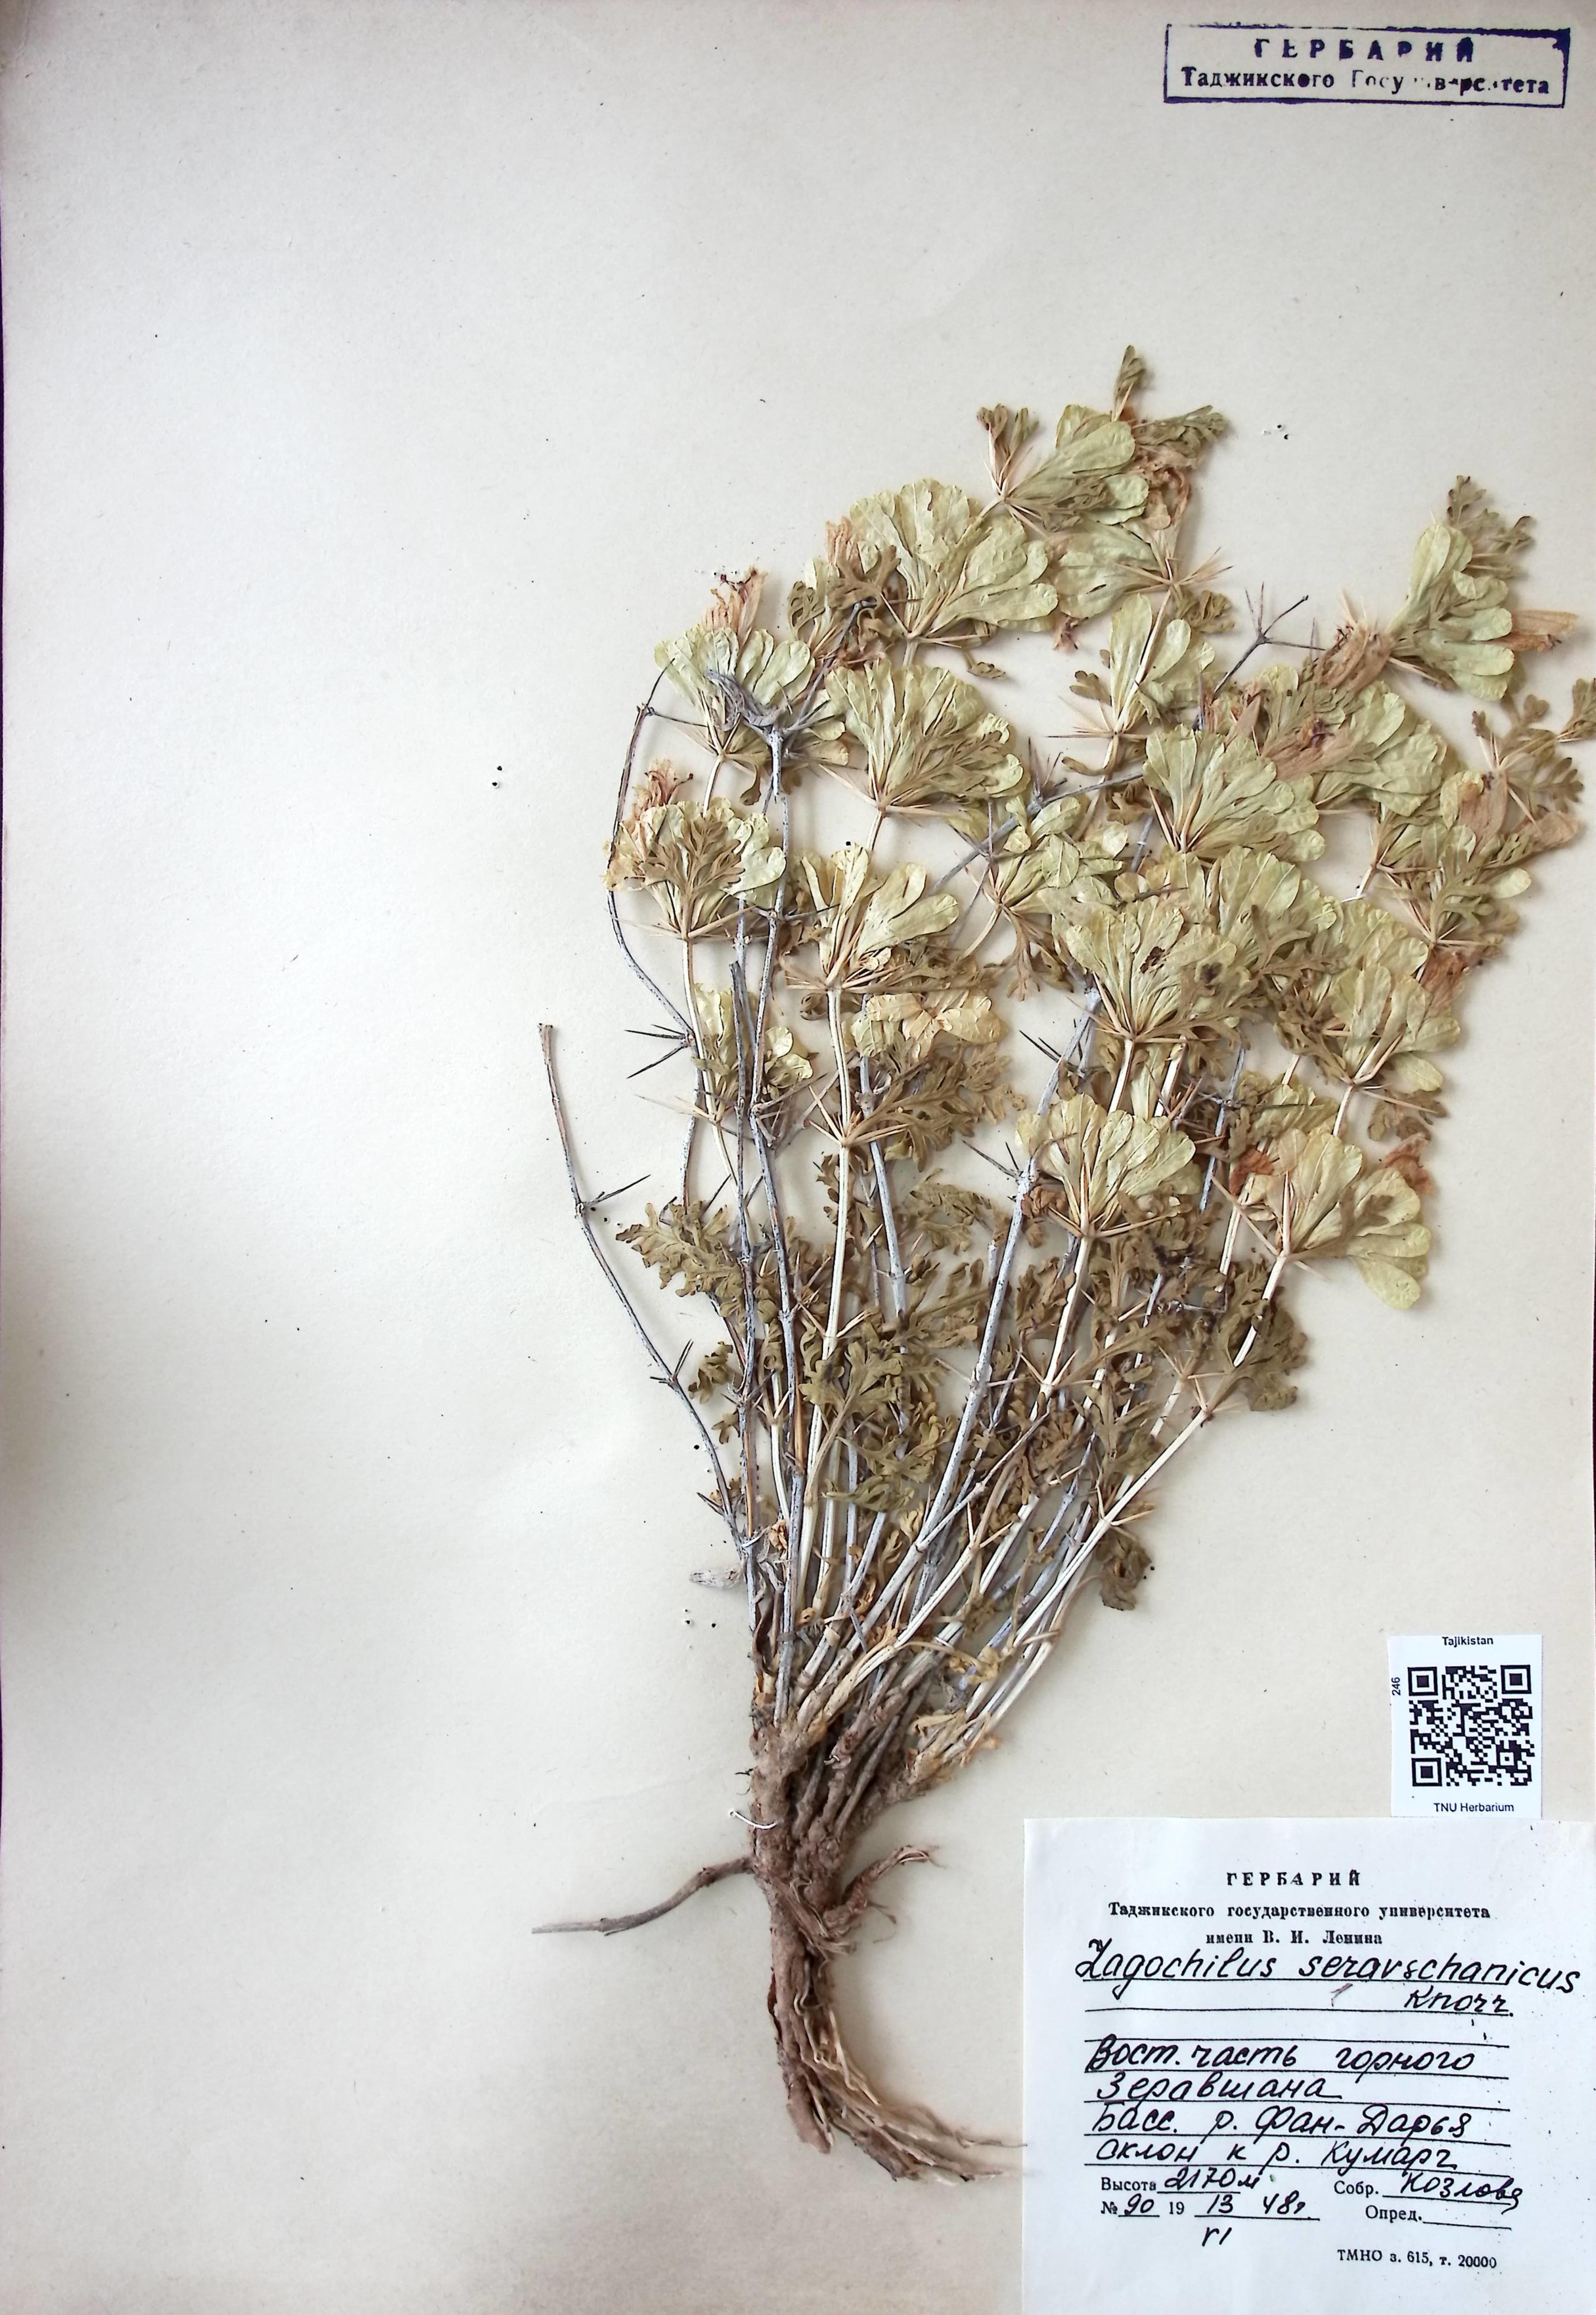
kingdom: Plantae
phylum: Tracheophyta
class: Magnoliopsida
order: Lamiales
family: Lamiaceae
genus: Lagochilus
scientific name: Lagochilus seravschanicus
